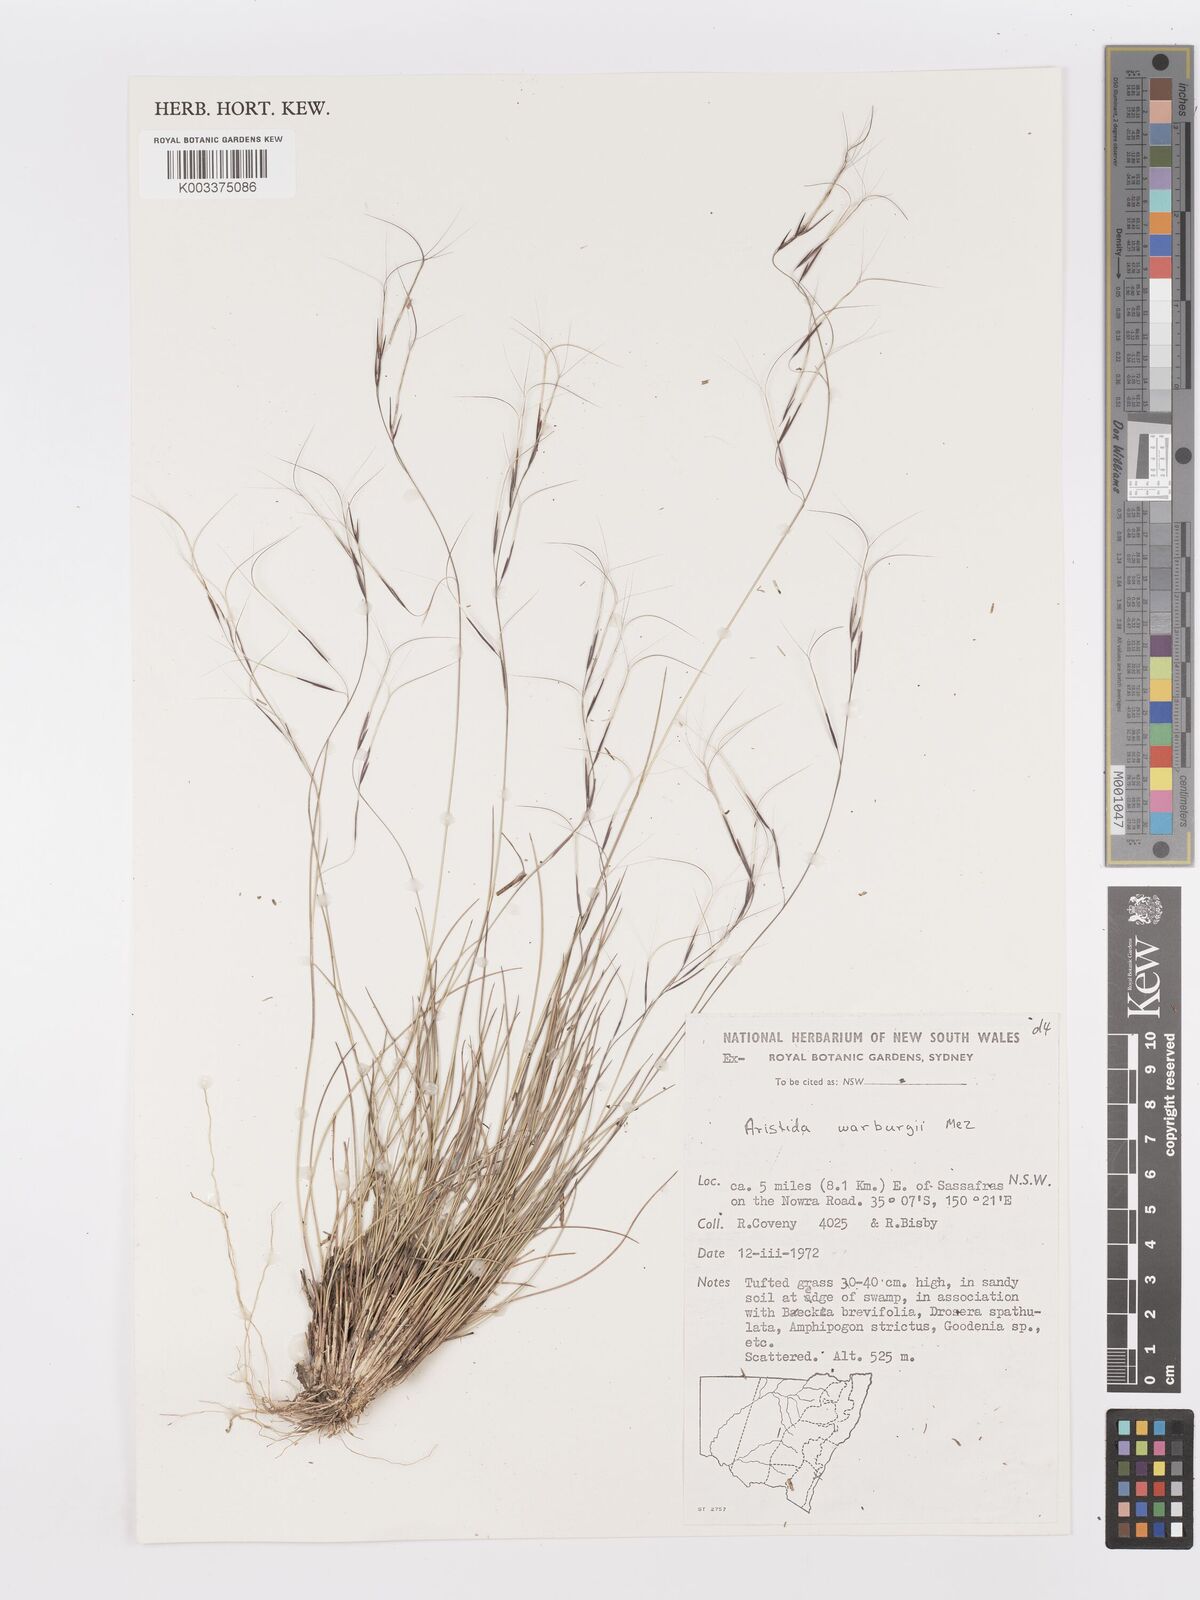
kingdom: Plantae
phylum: Tracheophyta
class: Liliopsida
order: Poales
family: Poaceae
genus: Aristida
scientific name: Aristida warburgii
